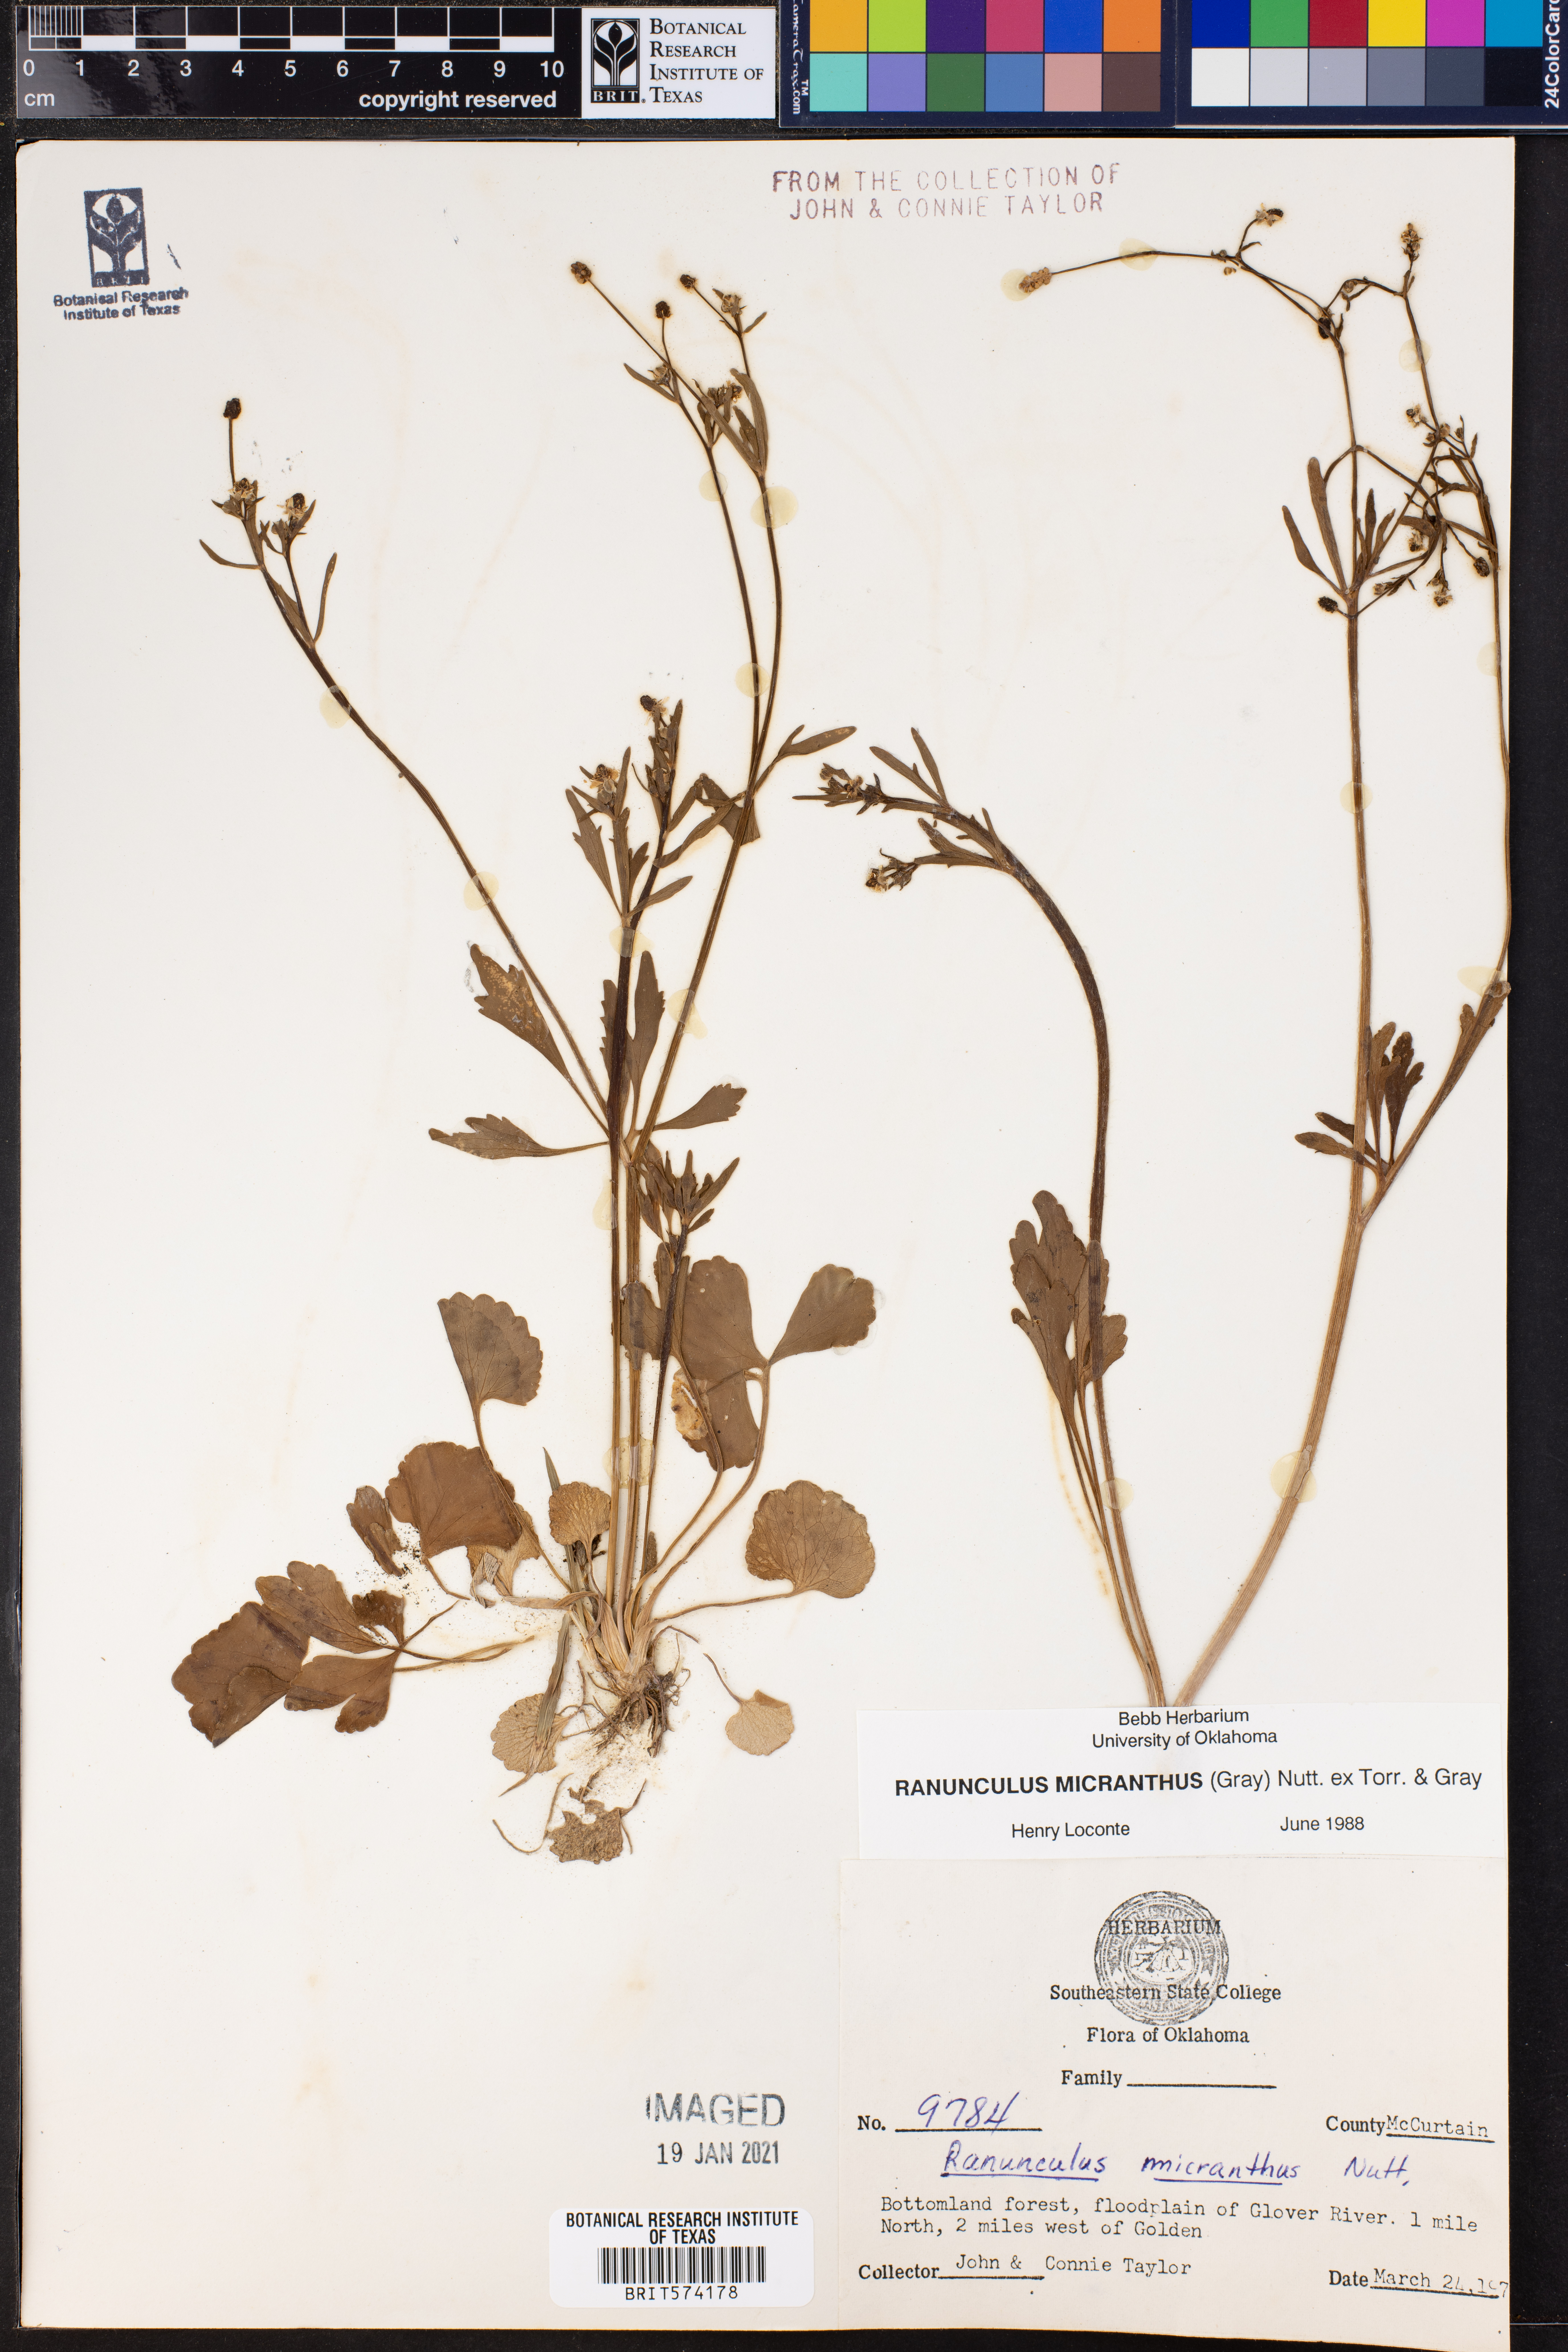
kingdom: Plantae
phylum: Tracheophyta
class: Magnoliopsida
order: Ranunculales
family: Ranunculaceae
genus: Ranunculus
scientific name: Ranunculus micranthus
